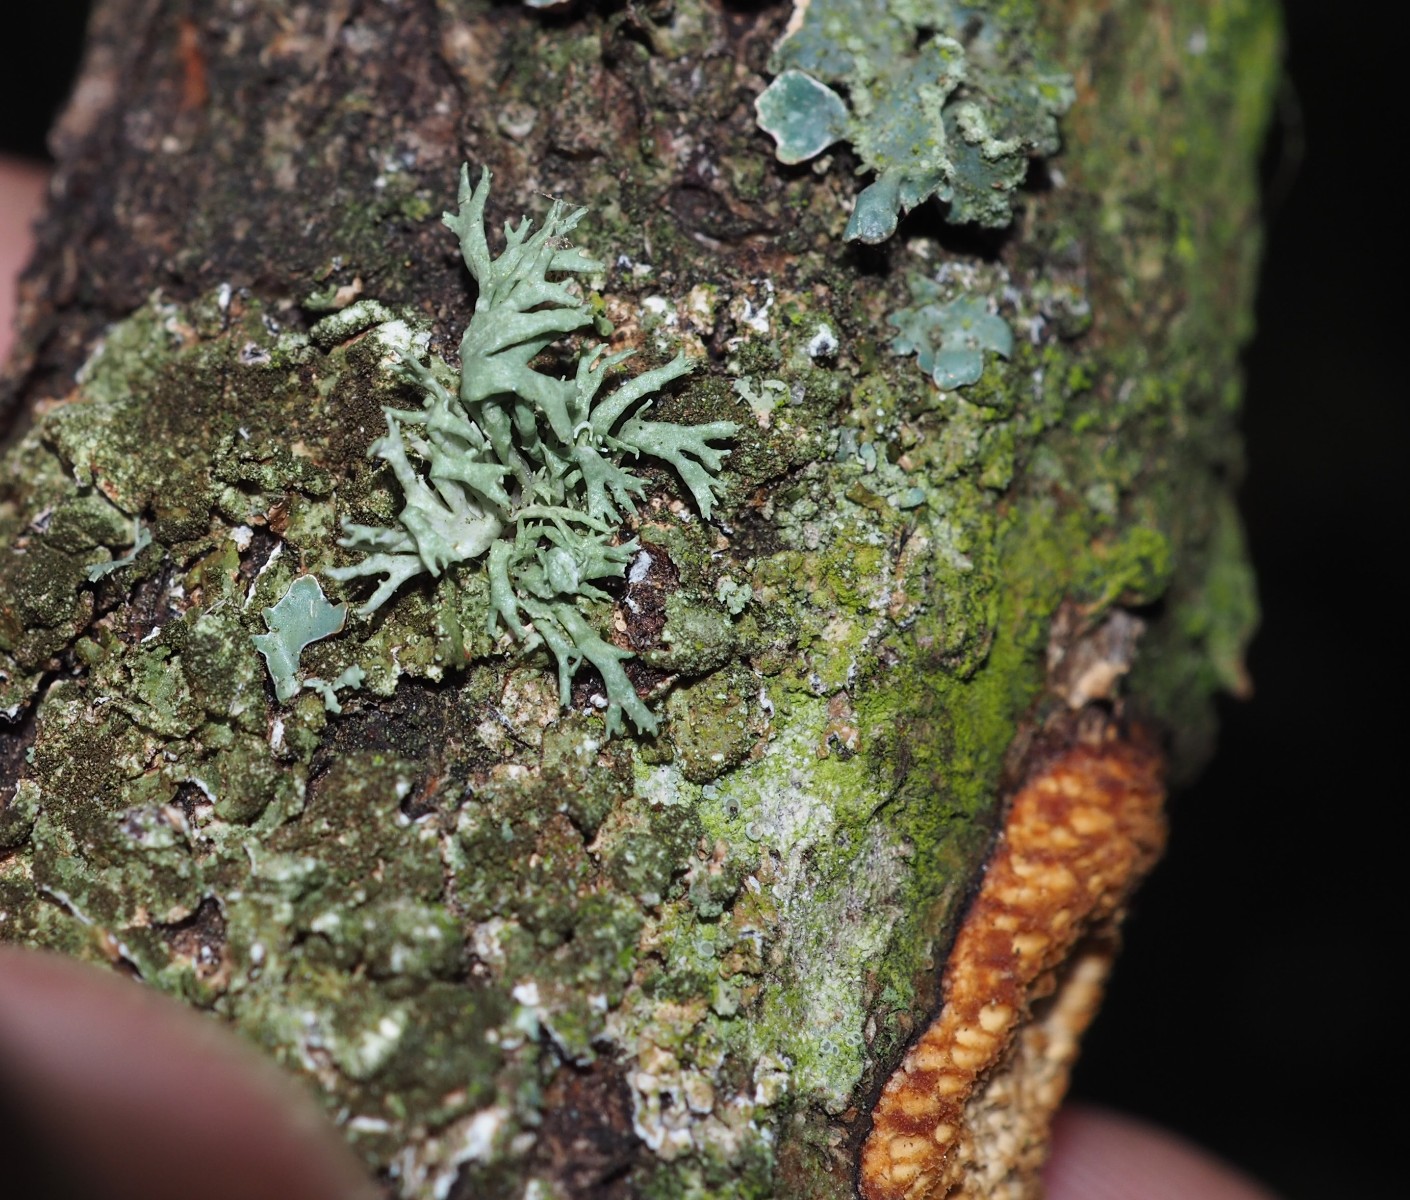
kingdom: Fungi
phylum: Ascomycota
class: Lecanoromycetes
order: Lecanorales
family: Parmeliaceae
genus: Evernia
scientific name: Evernia prunastri
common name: almindelig slåenlav
